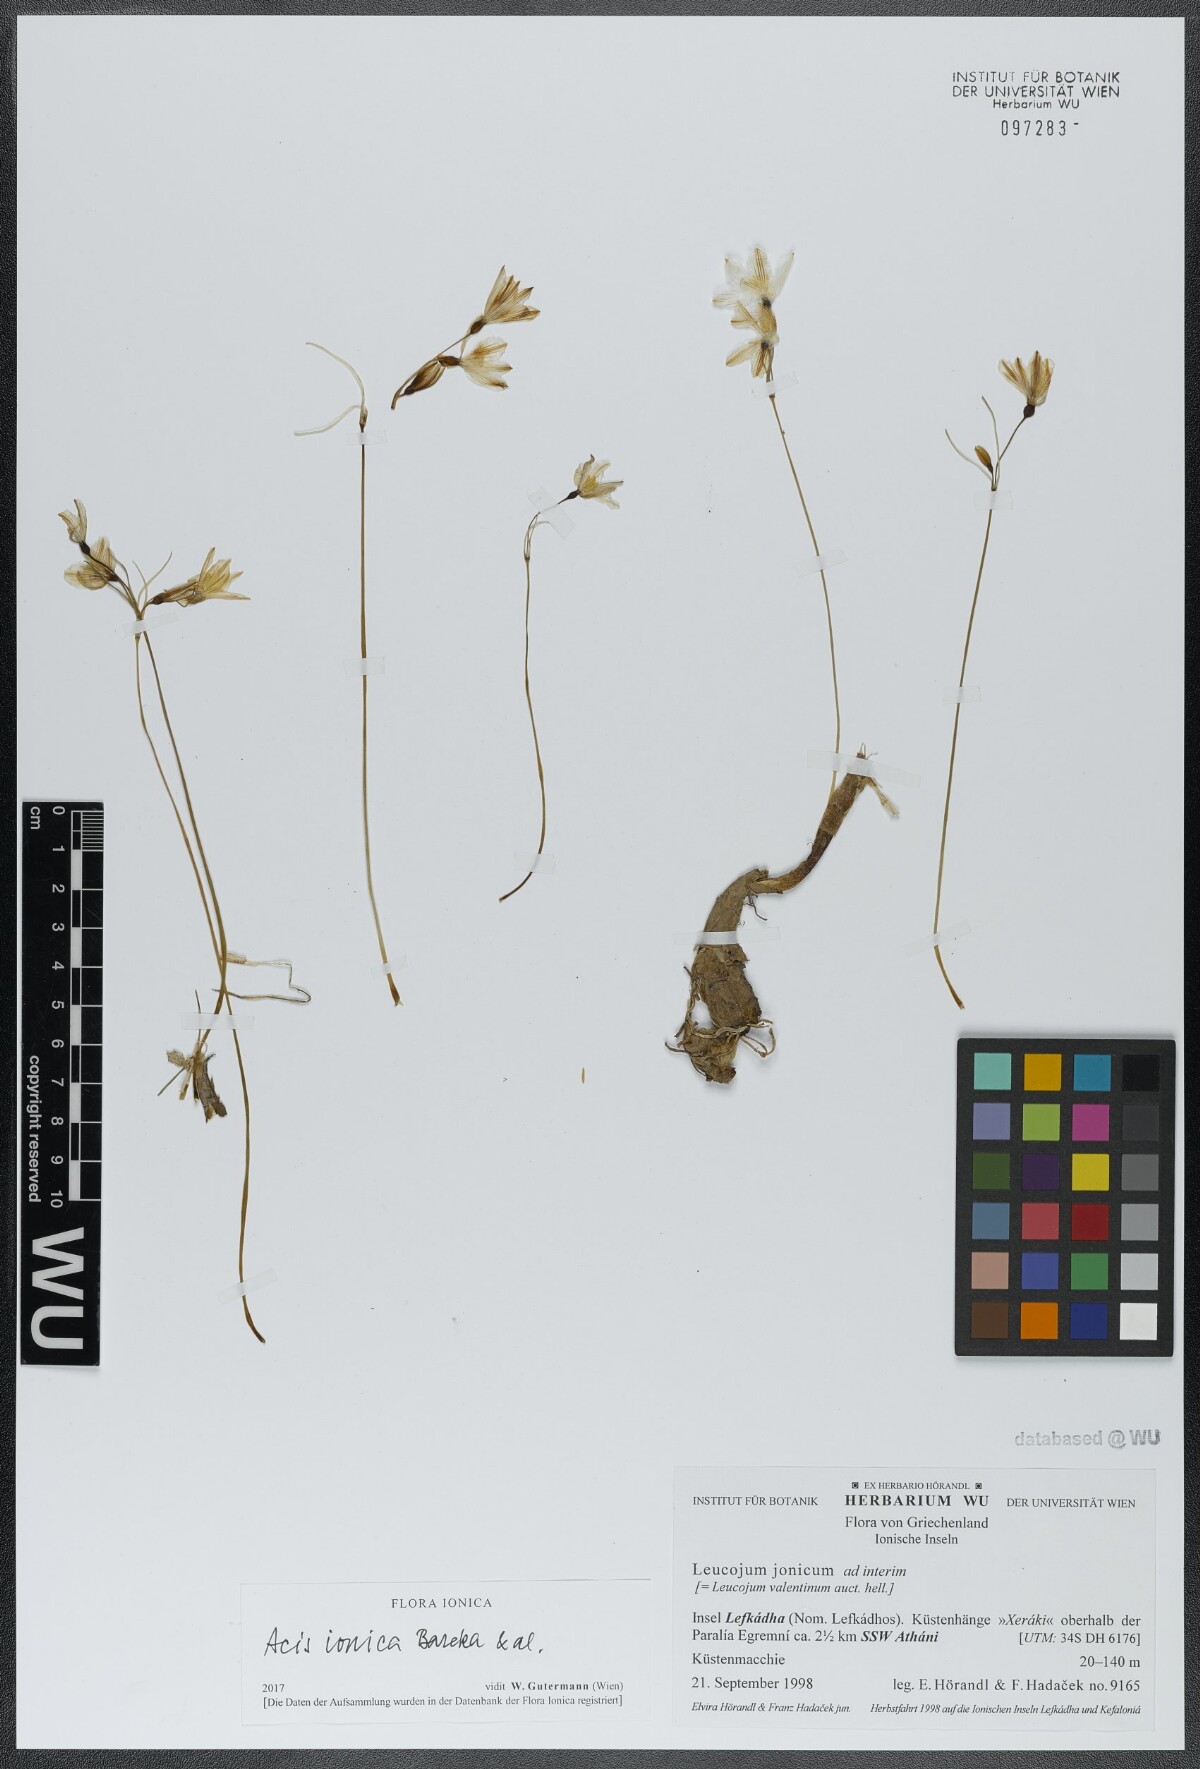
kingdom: Plantae
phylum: Tracheophyta
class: Liliopsida
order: Asparagales
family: Amaryllidaceae
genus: Acis
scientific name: Acis ionica
